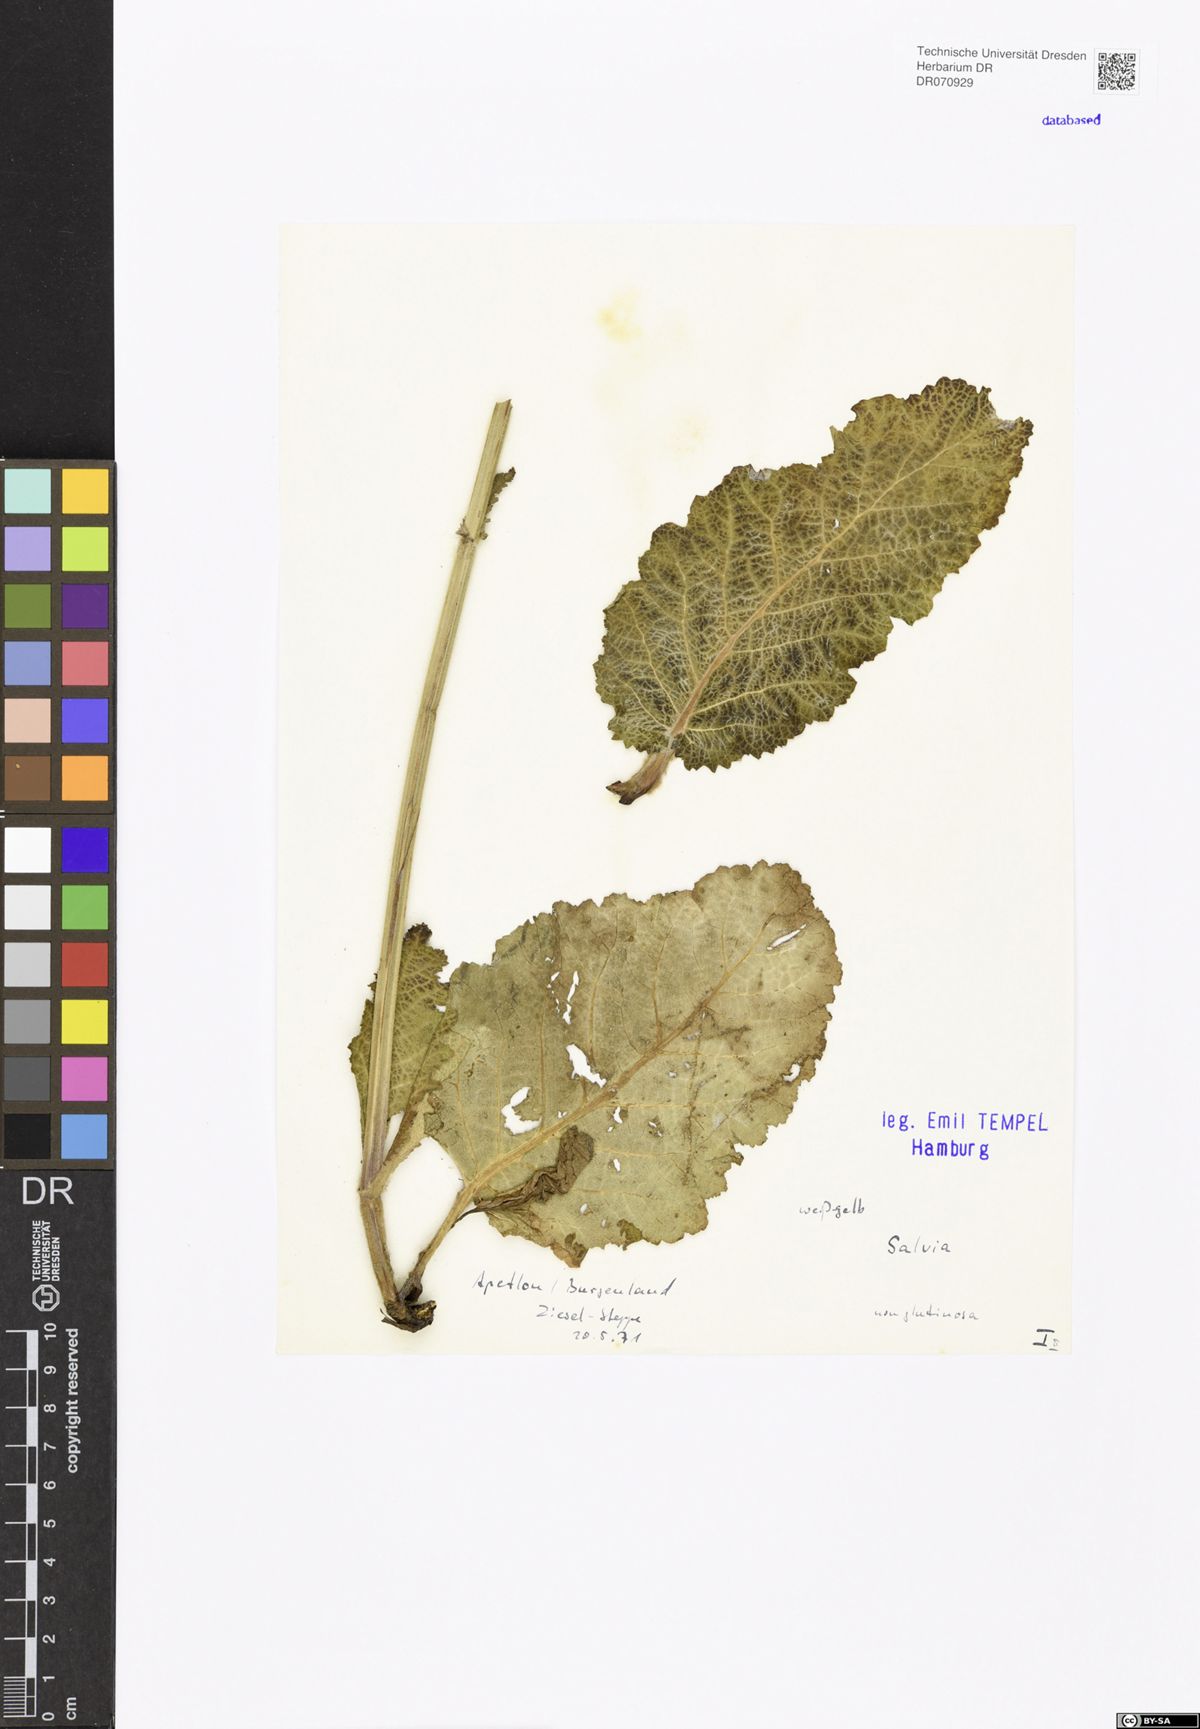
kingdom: Plantae
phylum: Tracheophyta
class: Magnoliopsida
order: Lamiales
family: Lamiaceae
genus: Salvia
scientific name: Salvia
